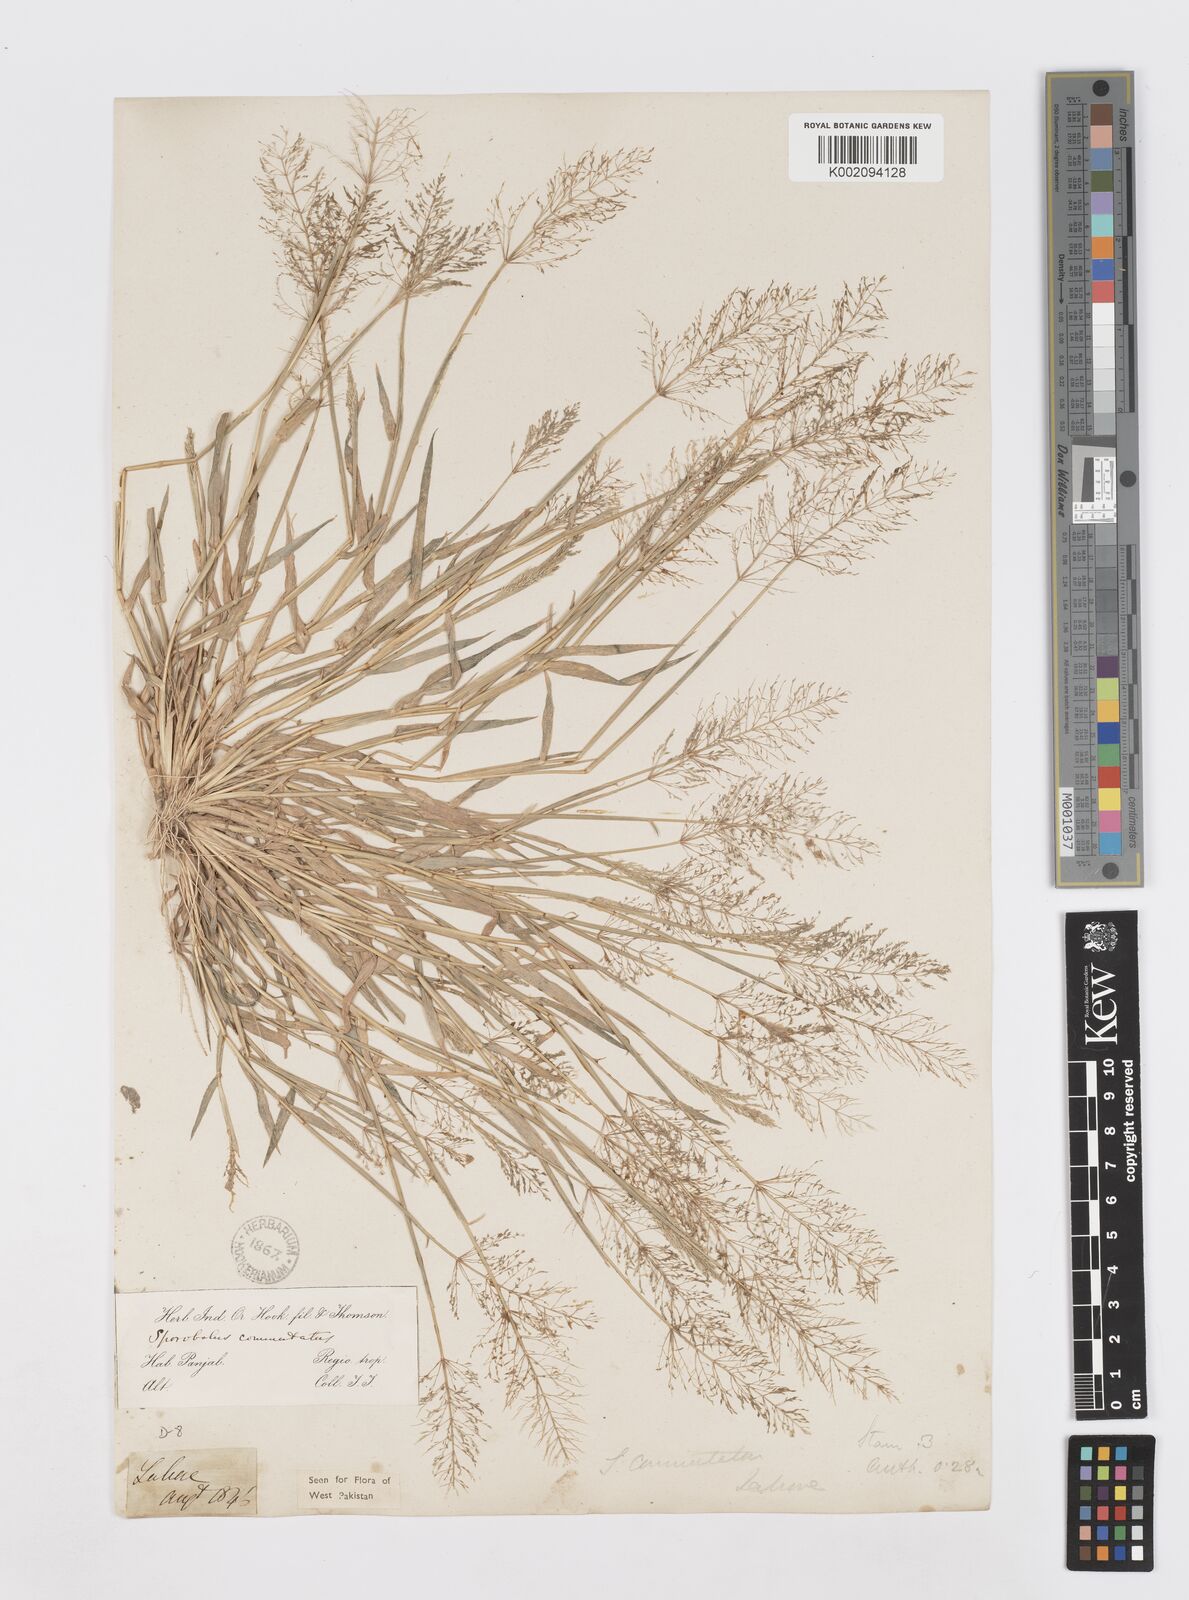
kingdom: Plantae
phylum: Tracheophyta
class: Liliopsida
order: Poales
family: Poaceae
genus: Sporobolus
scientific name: Sporobolus coromandelianus
